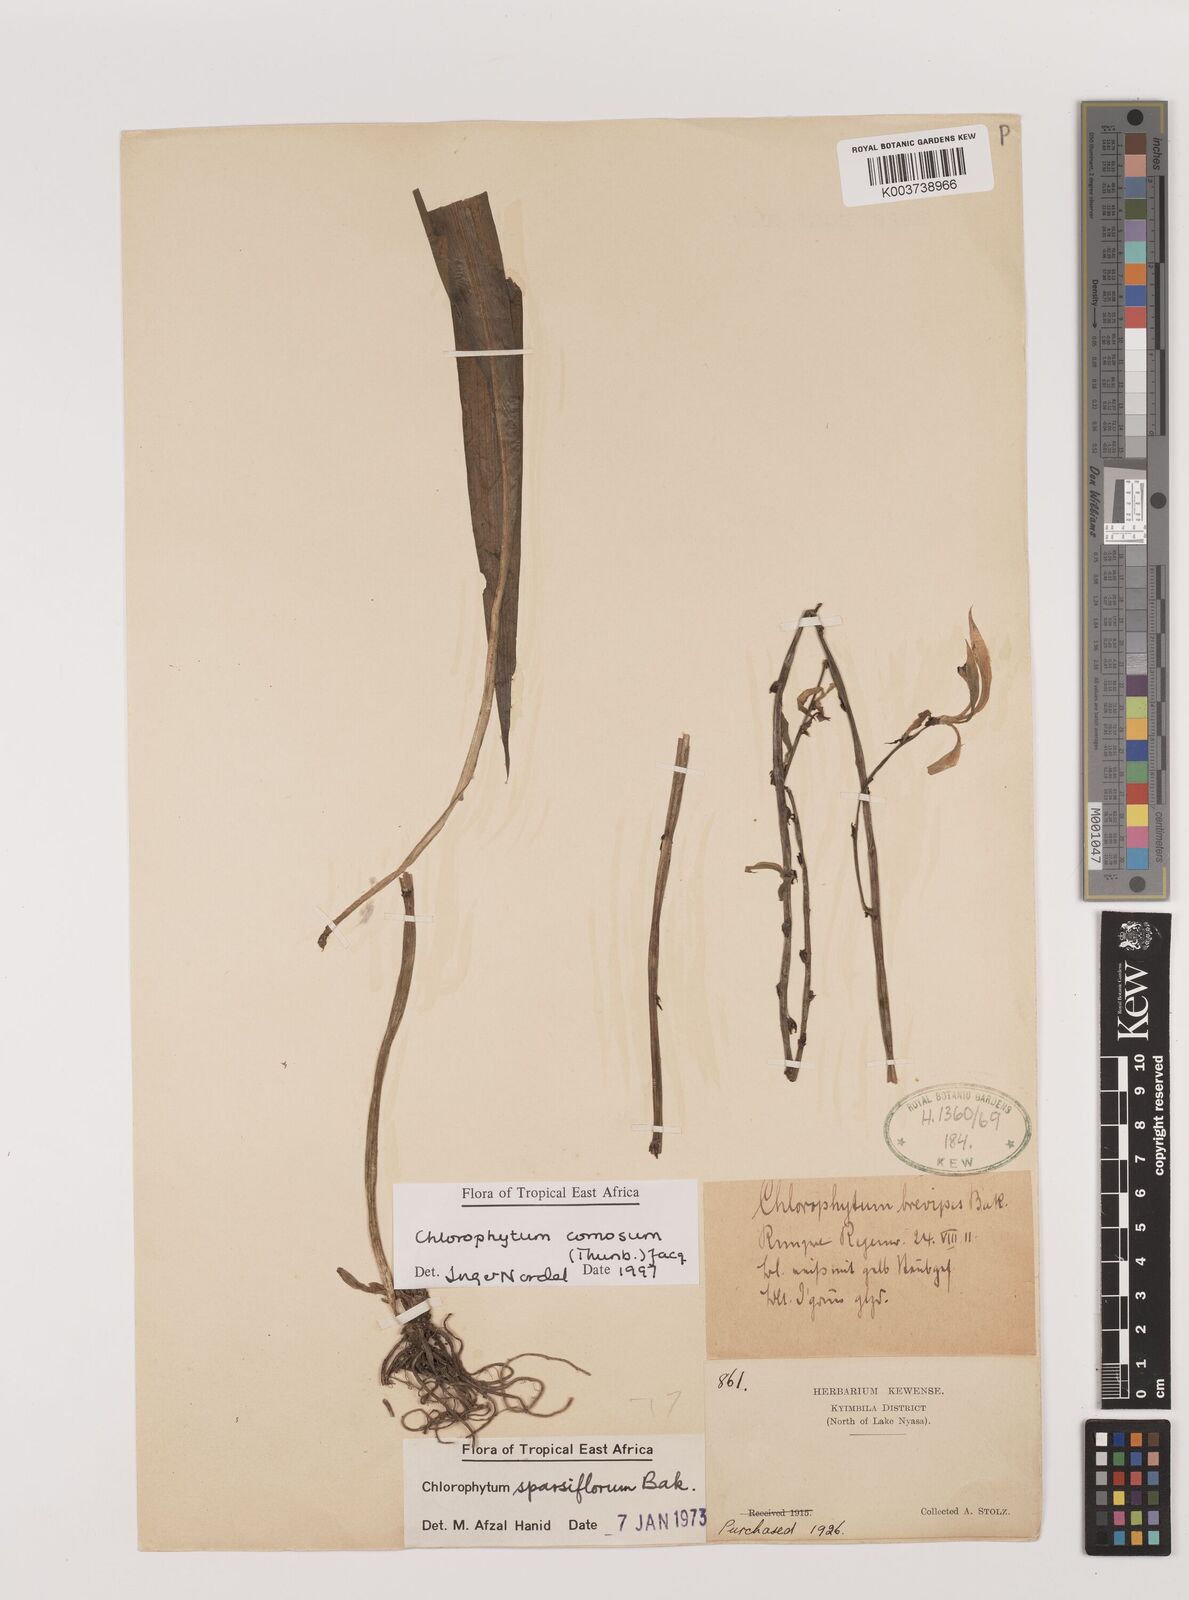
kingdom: Plantae
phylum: Tracheophyta
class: Liliopsida
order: Asparagales
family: Asparagaceae
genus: Chlorophytum
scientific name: Chlorophytum comosum
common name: Spider plant
